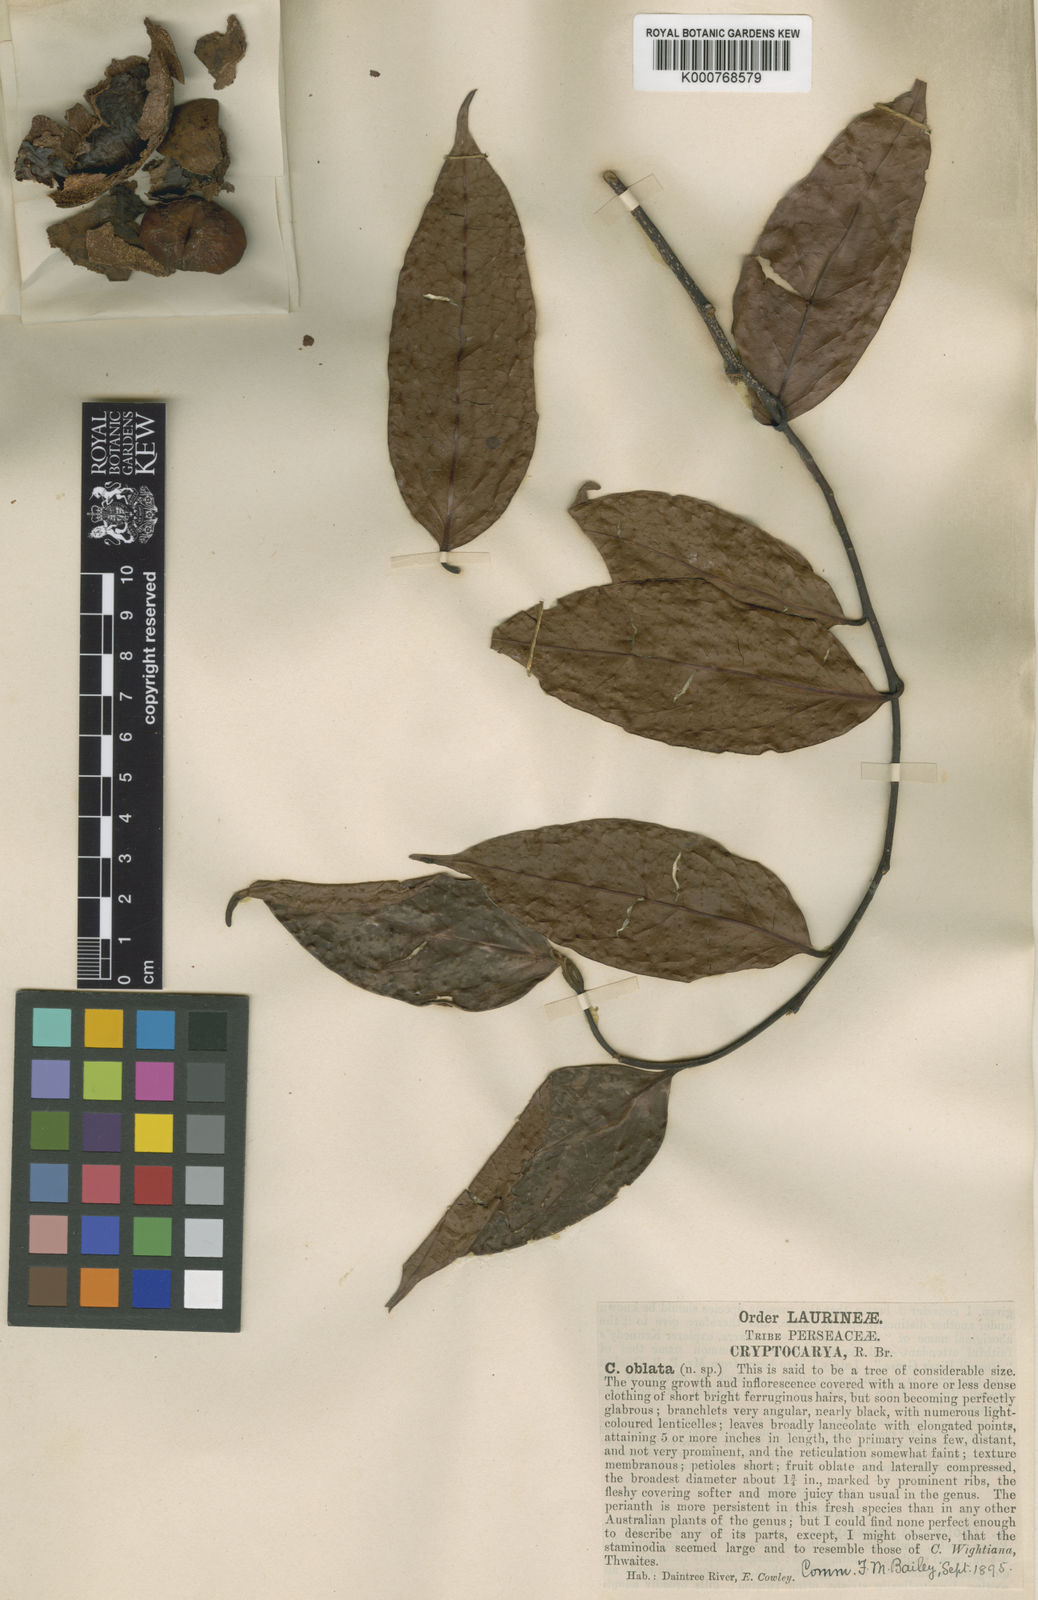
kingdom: Plantae
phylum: Tracheophyta
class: Magnoliopsida
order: Laurales
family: Lauraceae
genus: Cryptocarya
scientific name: Cryptocarya oblata
